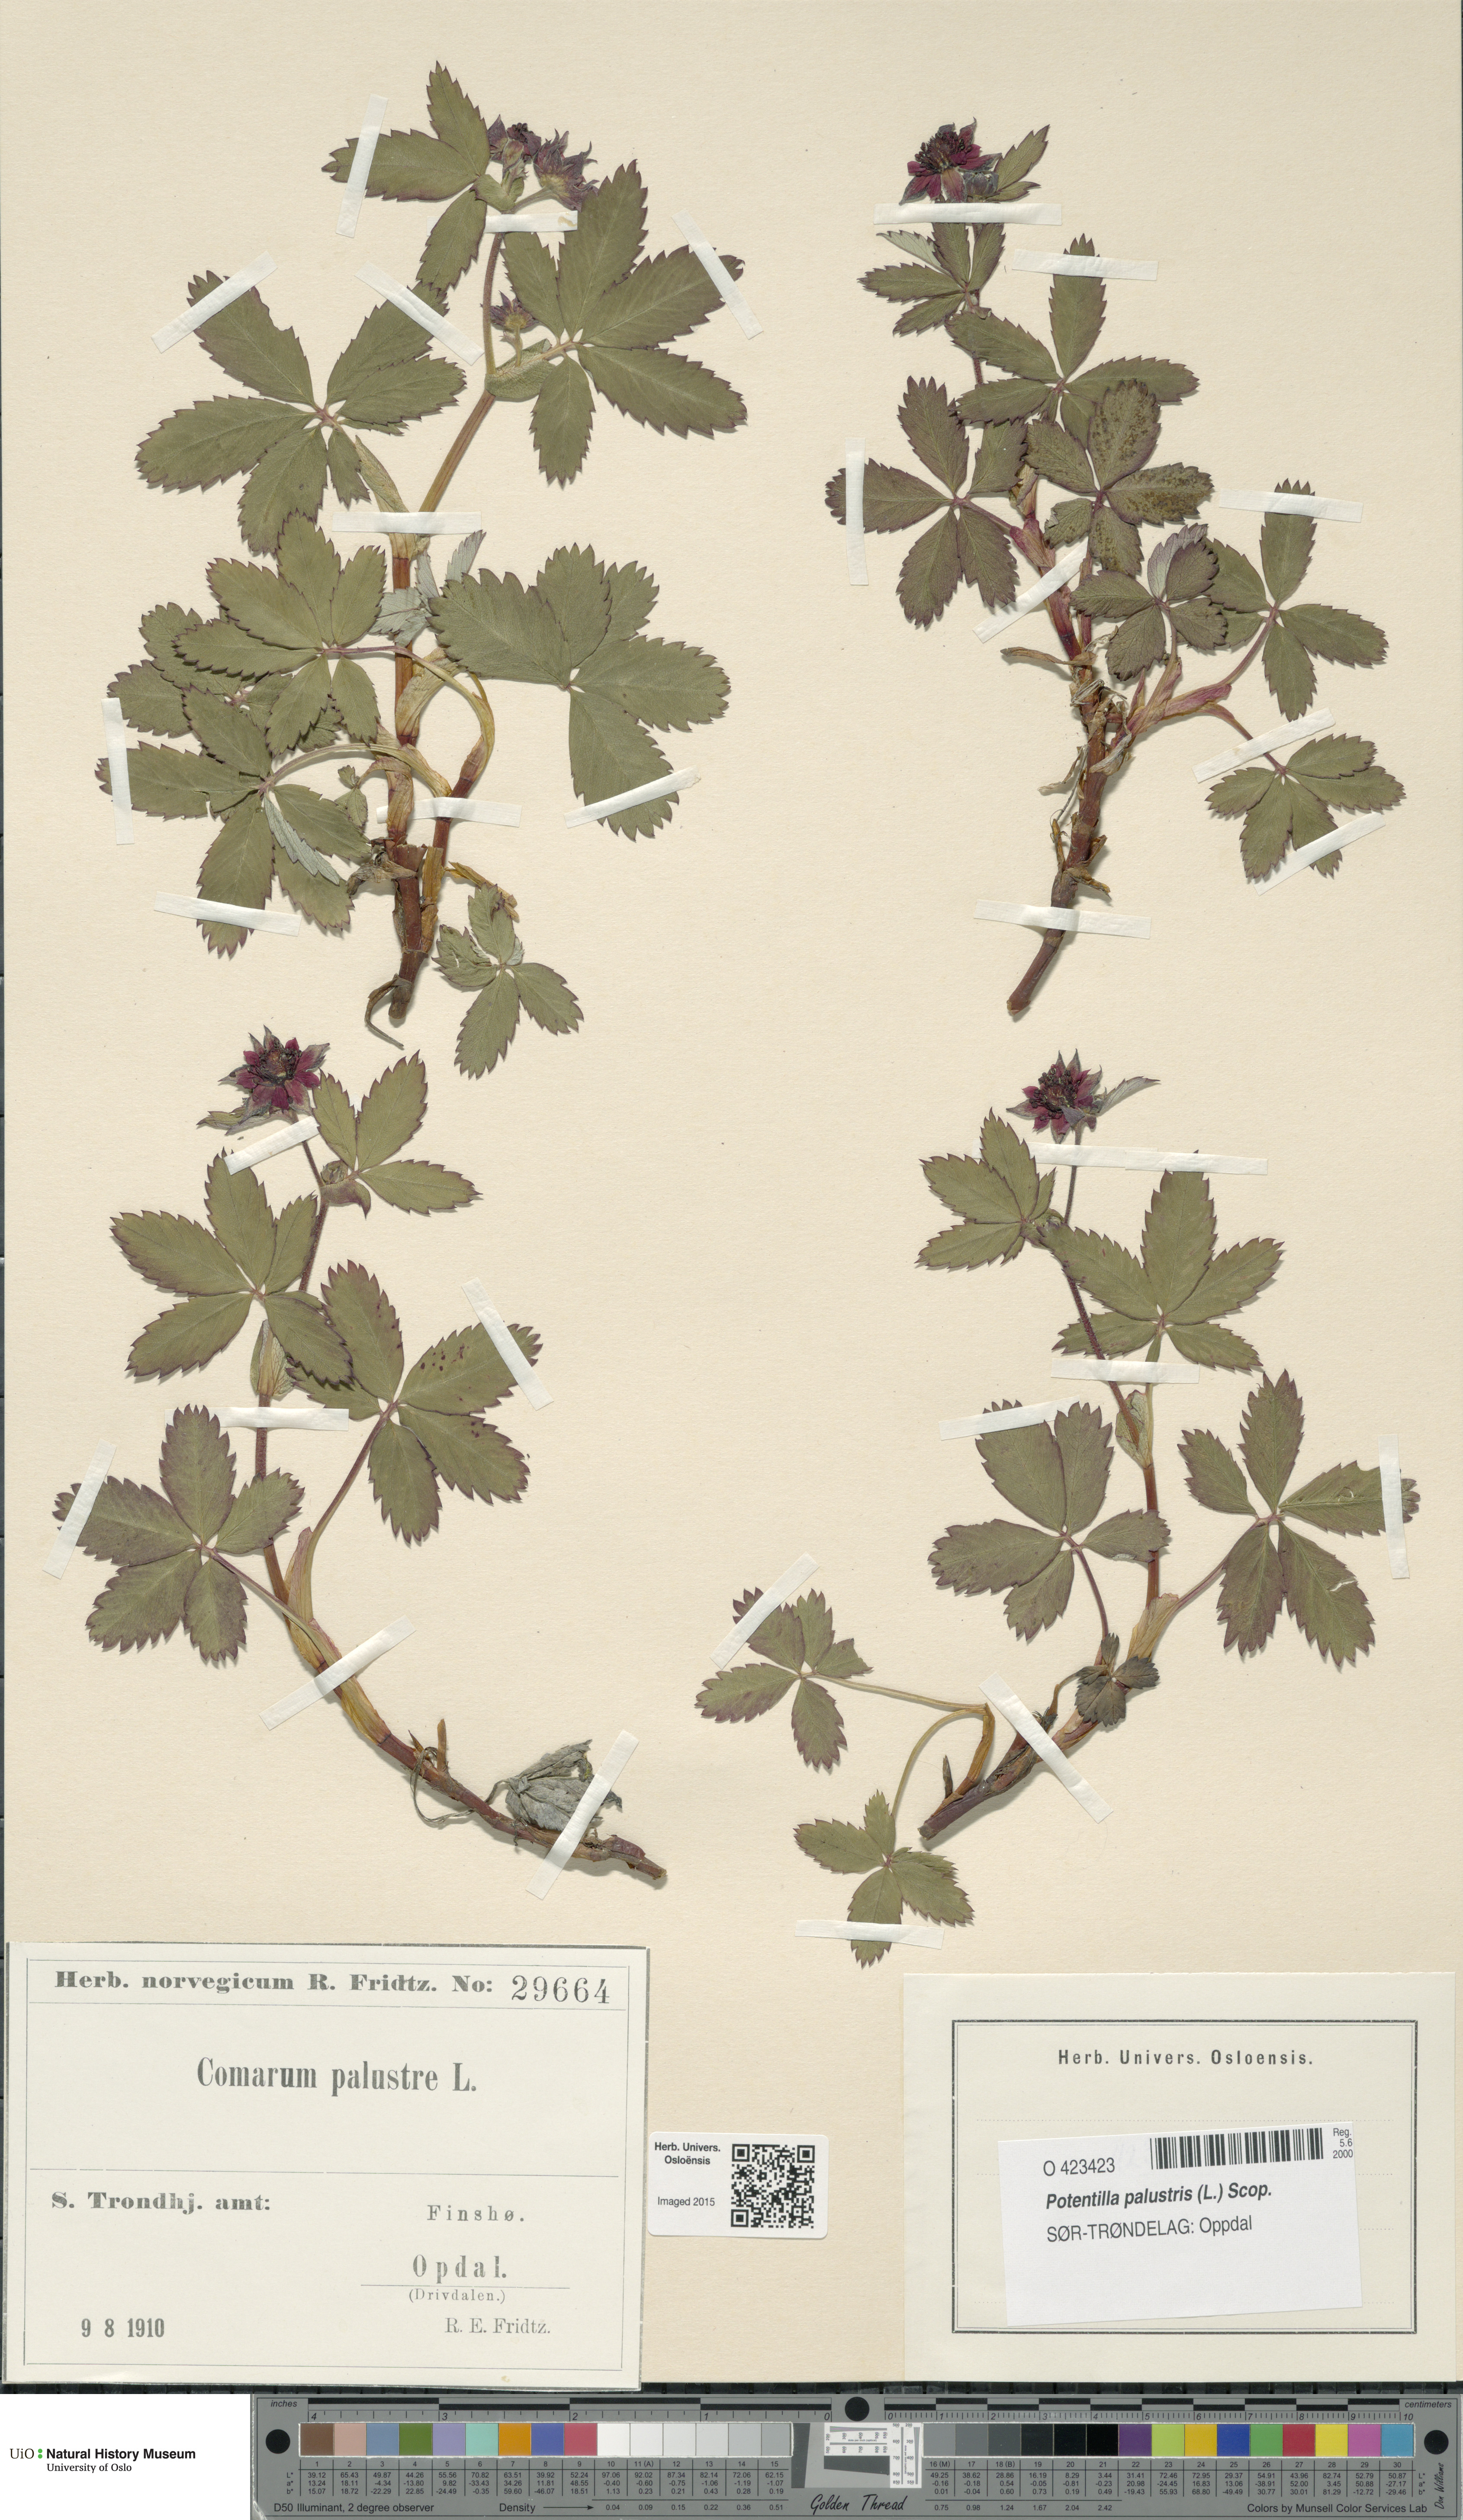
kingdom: Plantae
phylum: Tracheophyta
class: Magnoliopsida
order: Rosales
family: Rosaceae
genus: Comarum
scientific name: Comarum palustre
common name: Marsh cinquefoil
